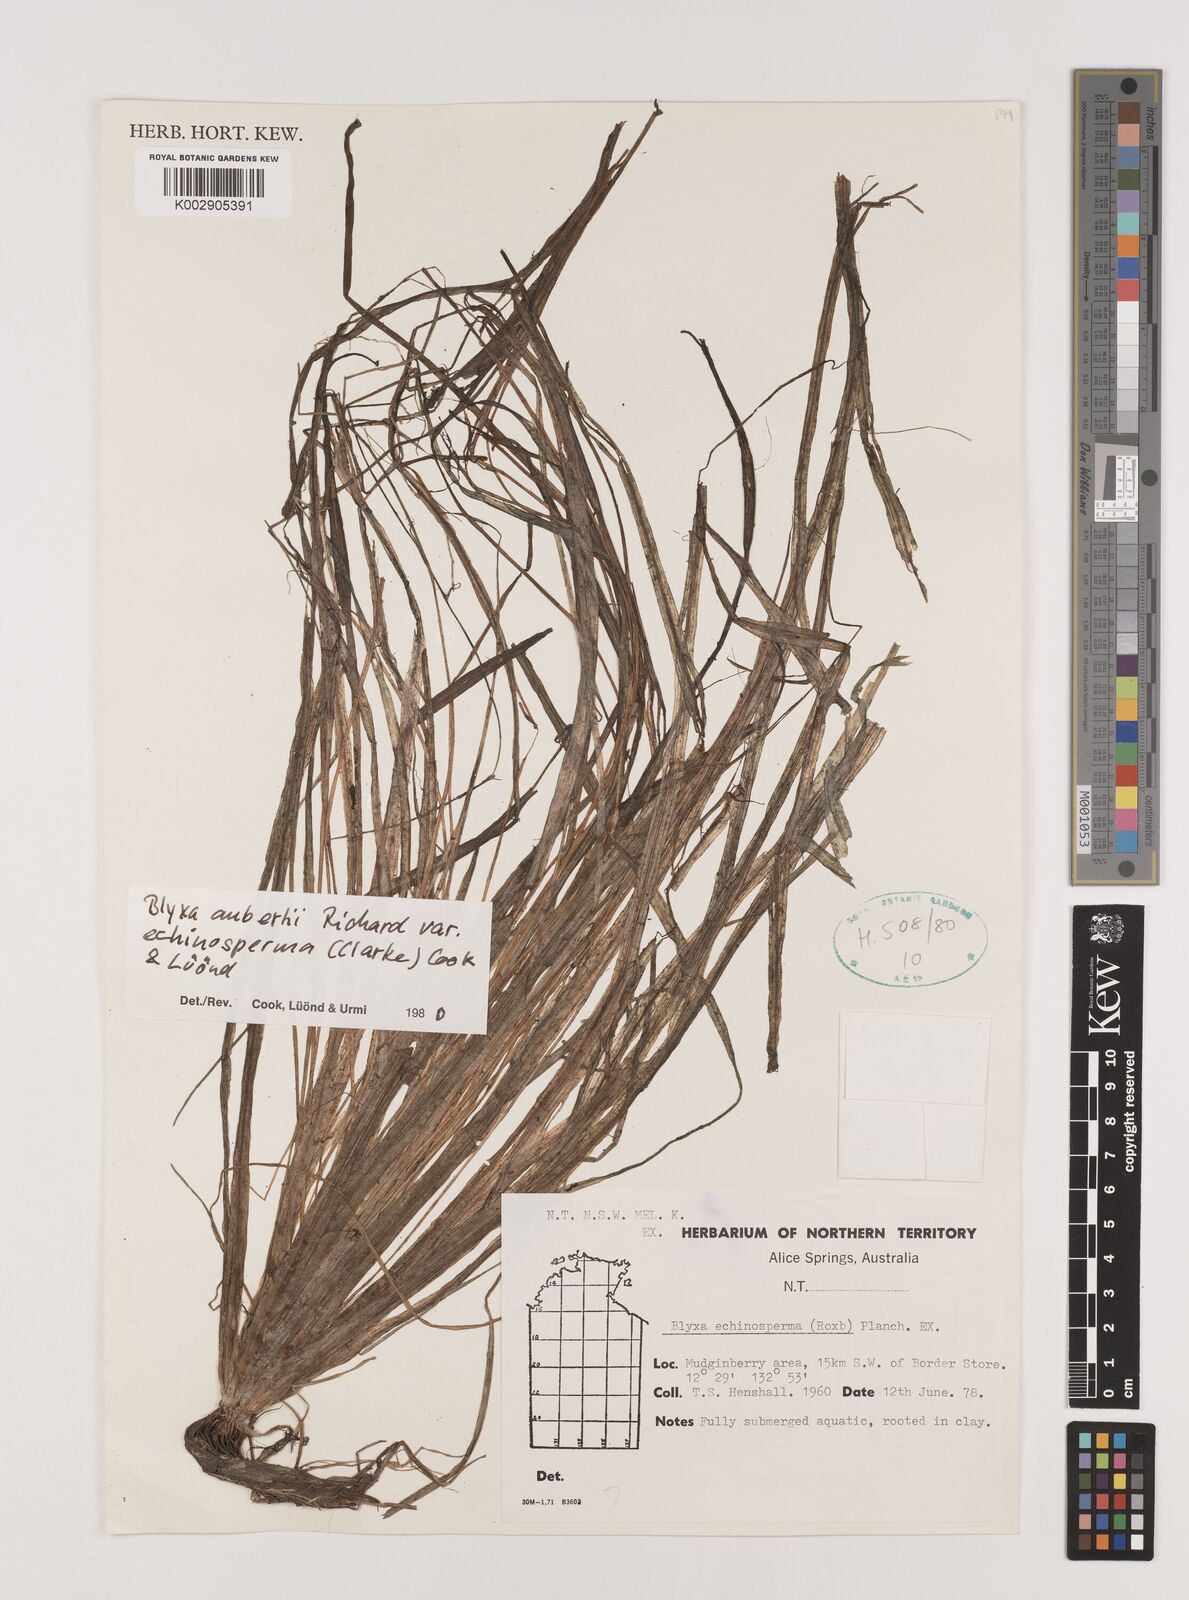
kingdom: Plantae
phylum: Tracheophyta
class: Liliopsida
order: Alismatales
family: Hydrocharitaceae
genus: Blyxa
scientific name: Blyxa echinosperma
